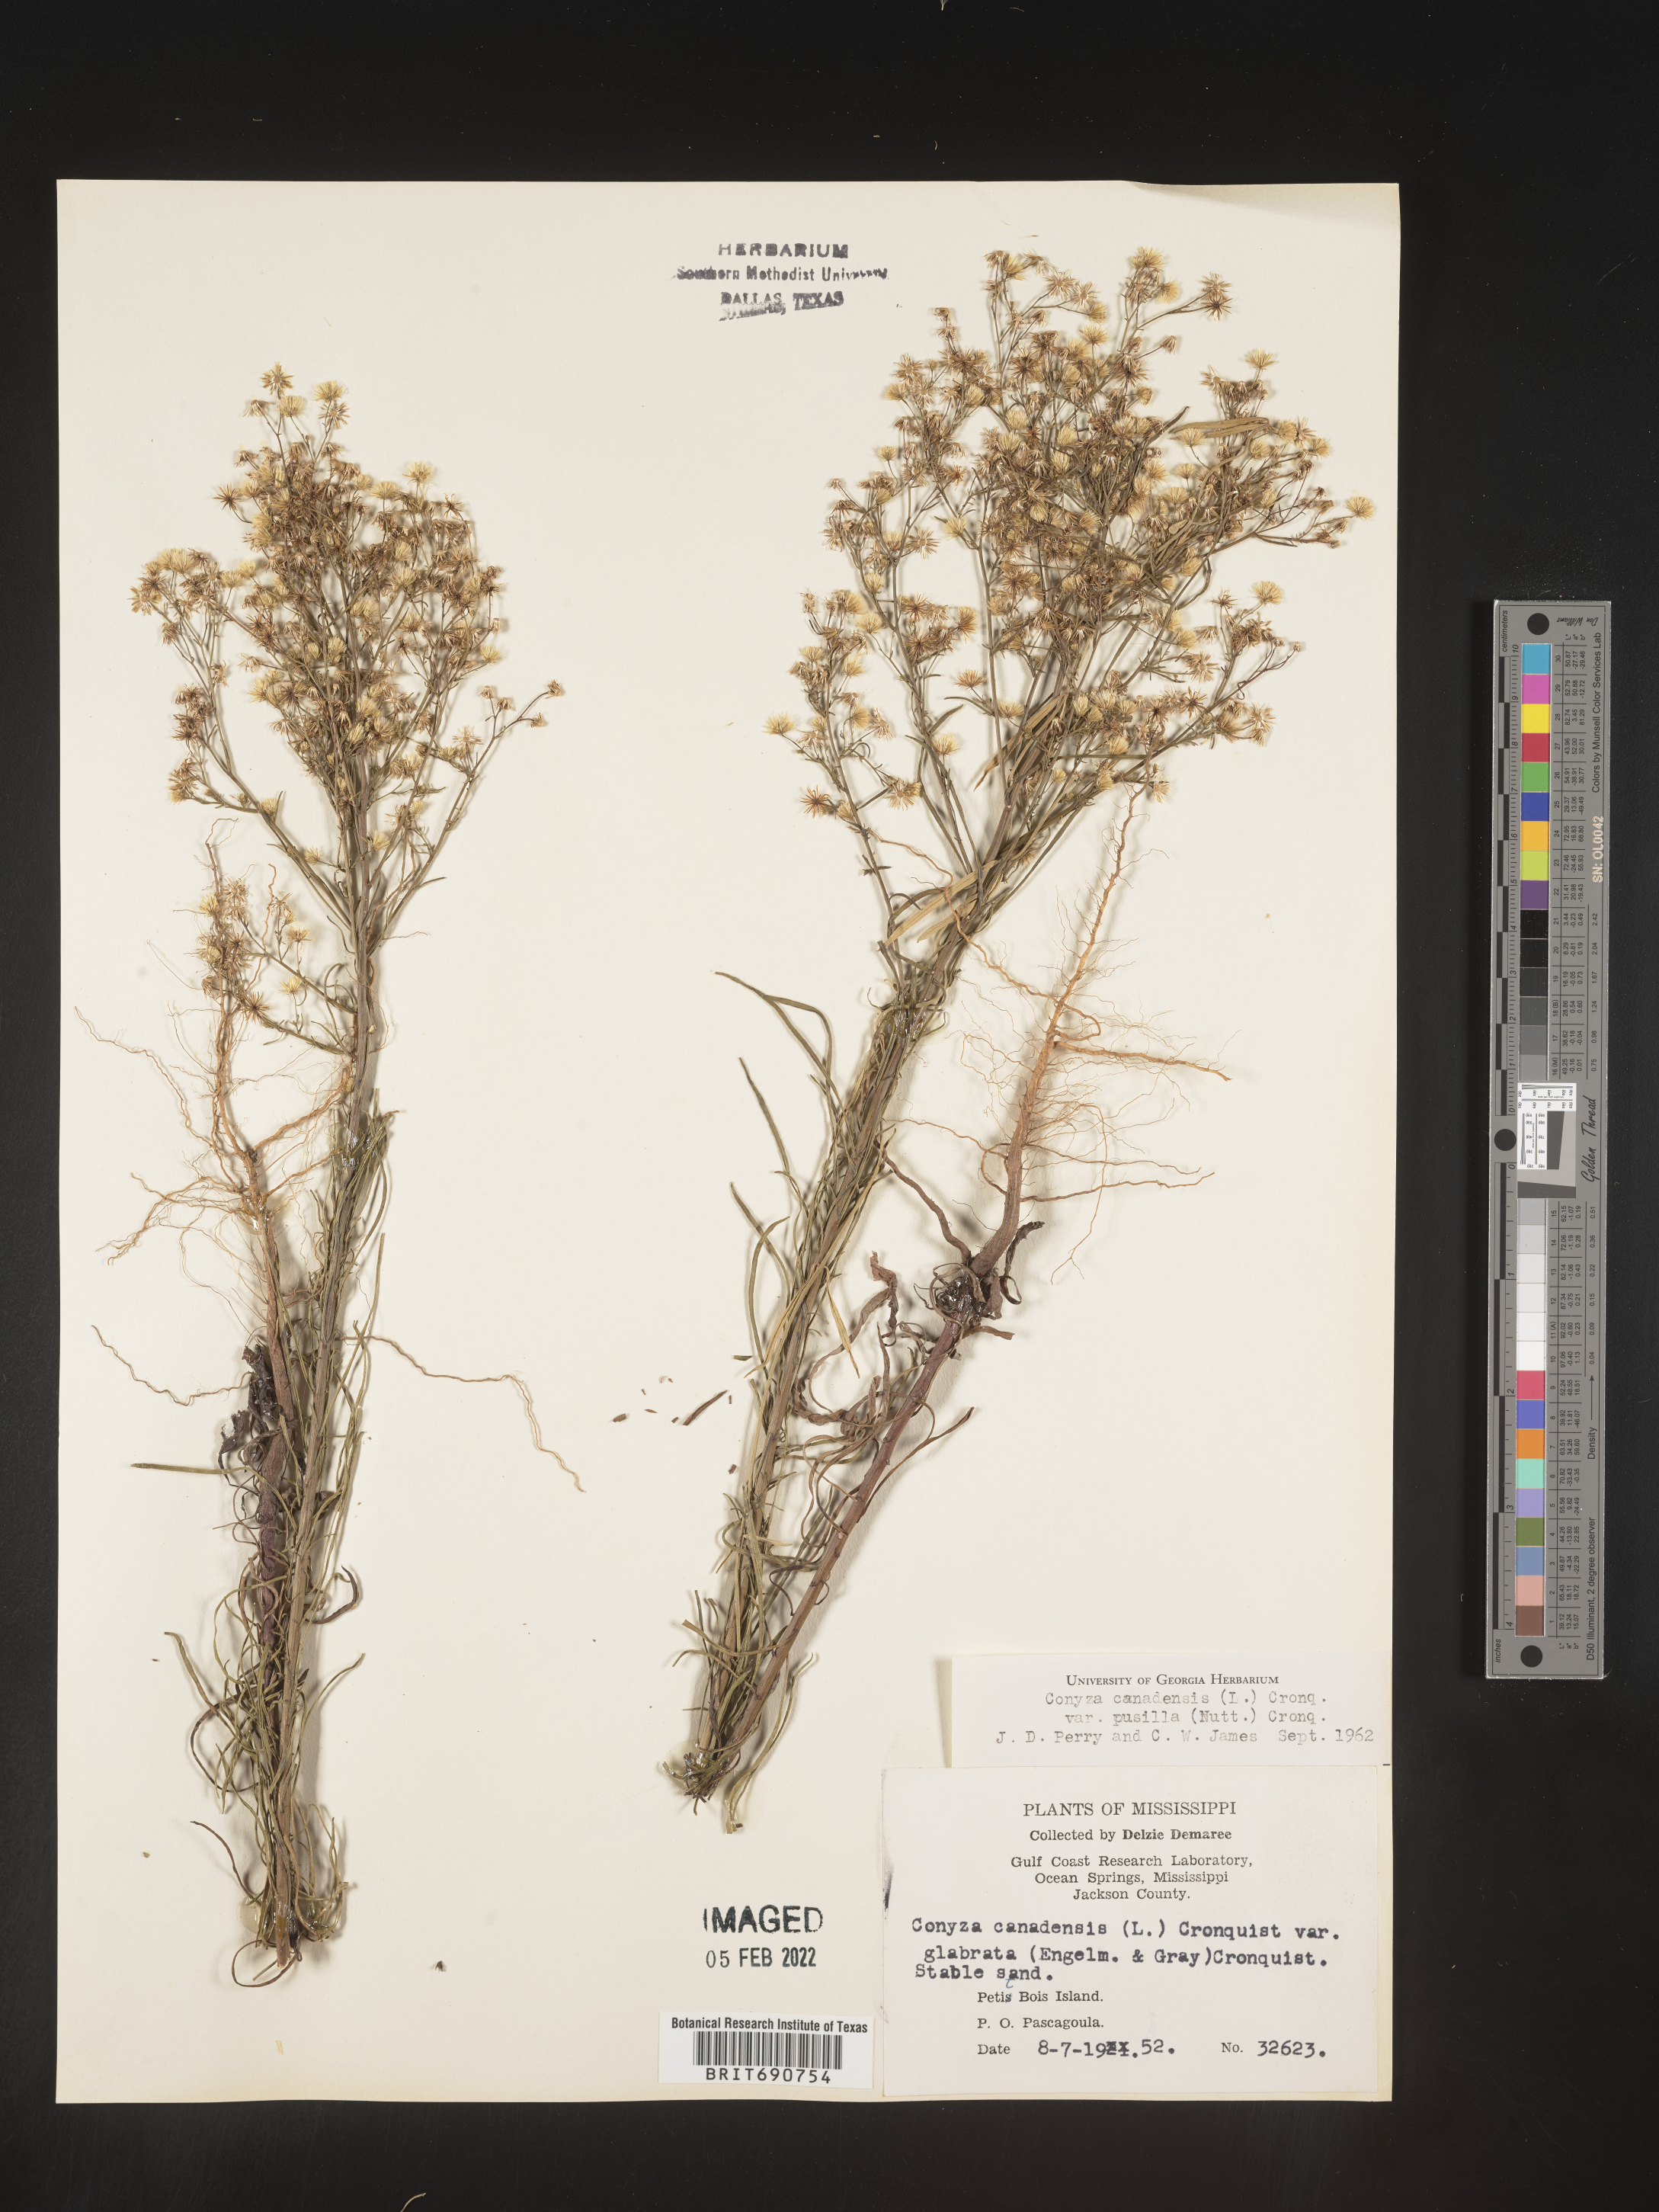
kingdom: Plantae
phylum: Tracheophyta
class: Magnoliopsida
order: Asterales
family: Asteraceae
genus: Erigeron
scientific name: Erigeron canadensis
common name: Canadian fleabane
